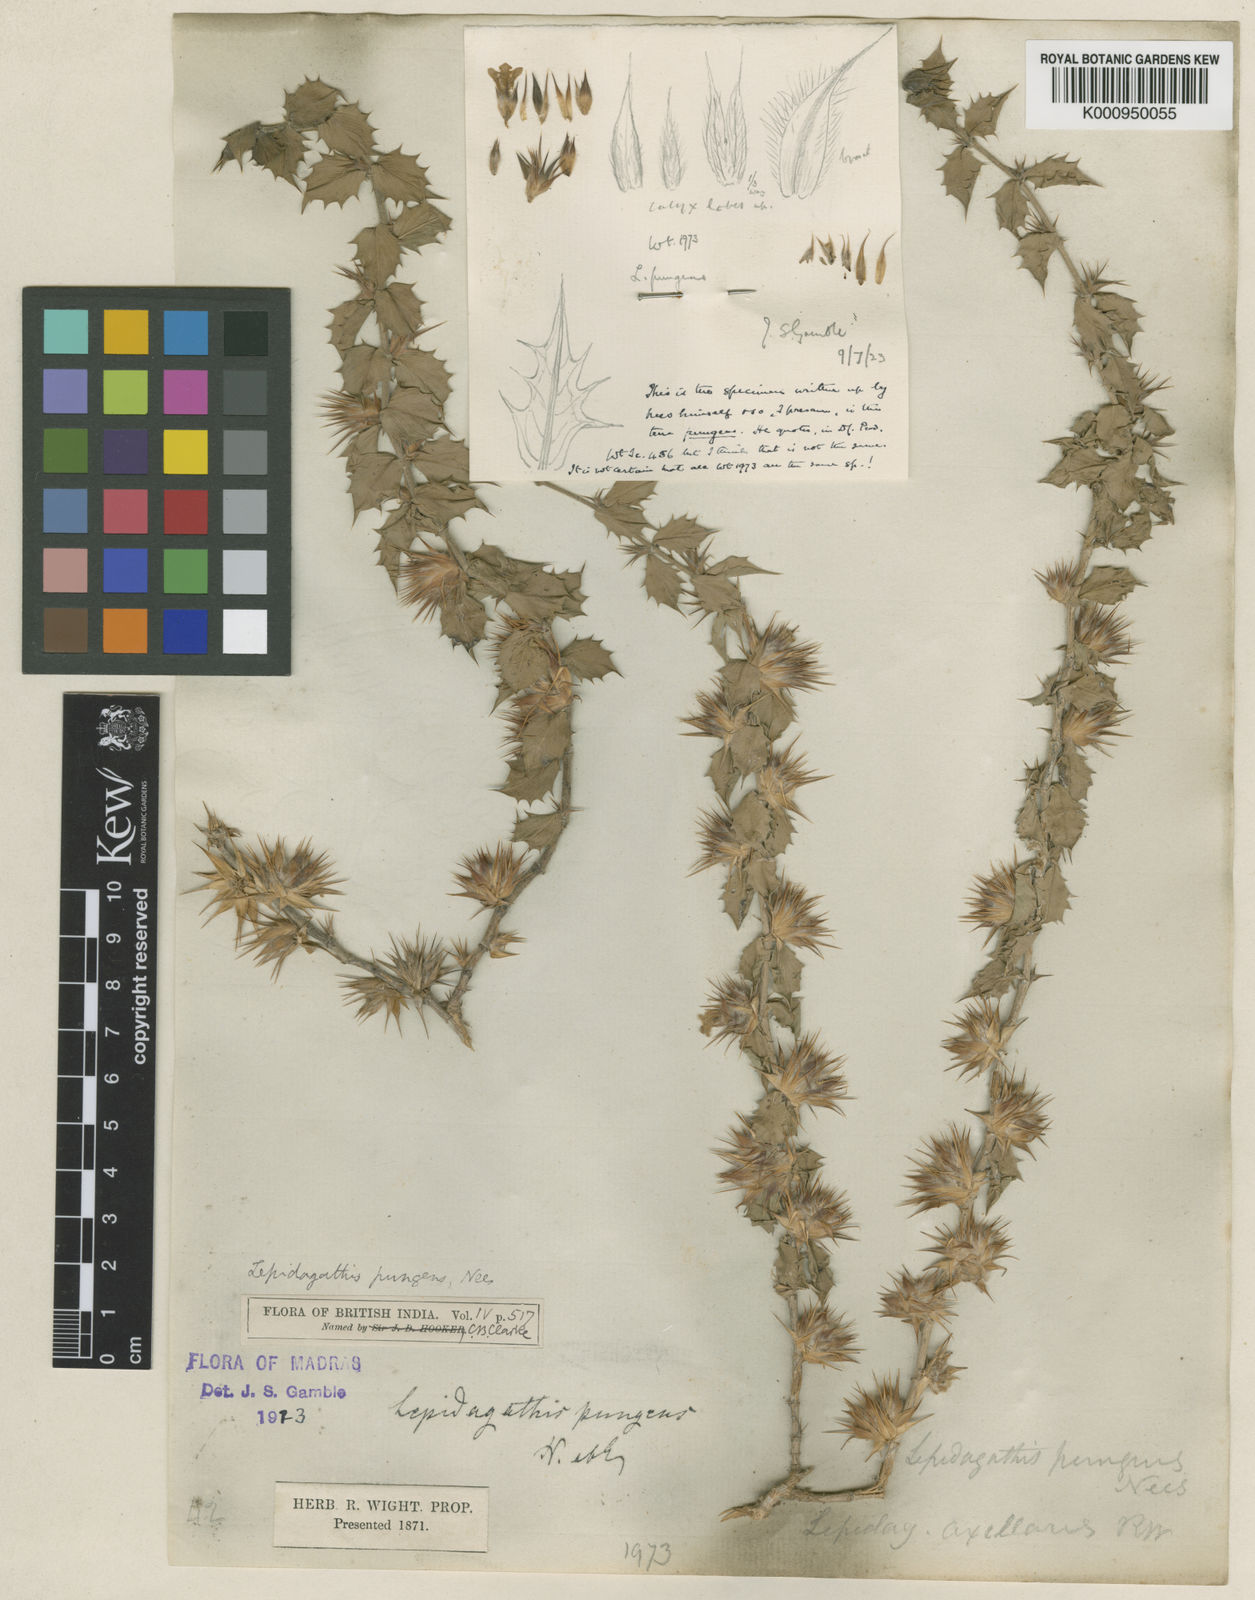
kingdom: Plantae
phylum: Tracheophyta
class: Magnoliopsida
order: Lamiales
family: Acanthaceae
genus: Lepidagathis
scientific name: Lepidagathis pungens
